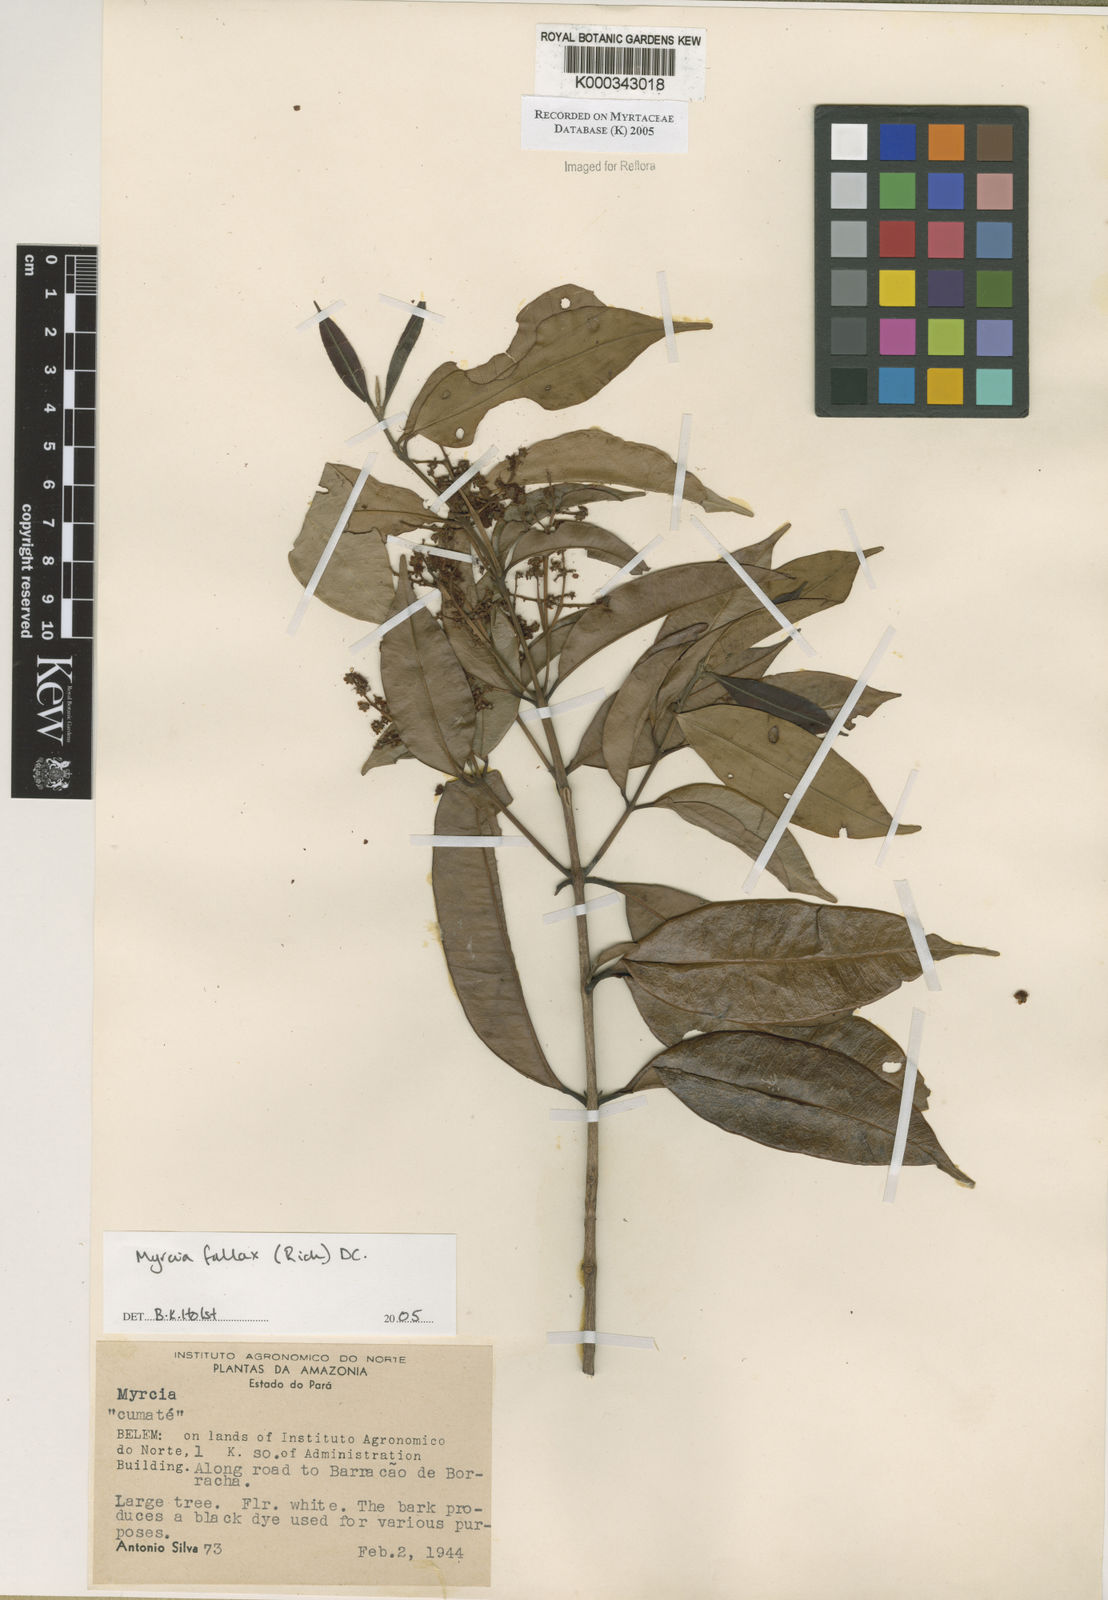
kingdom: Plantae
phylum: Tracheophyta
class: Magnoliopsida
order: Myrtales
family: Myrtaceae
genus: Myrcia
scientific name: Myrcia splendens
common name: Surinam cherry
